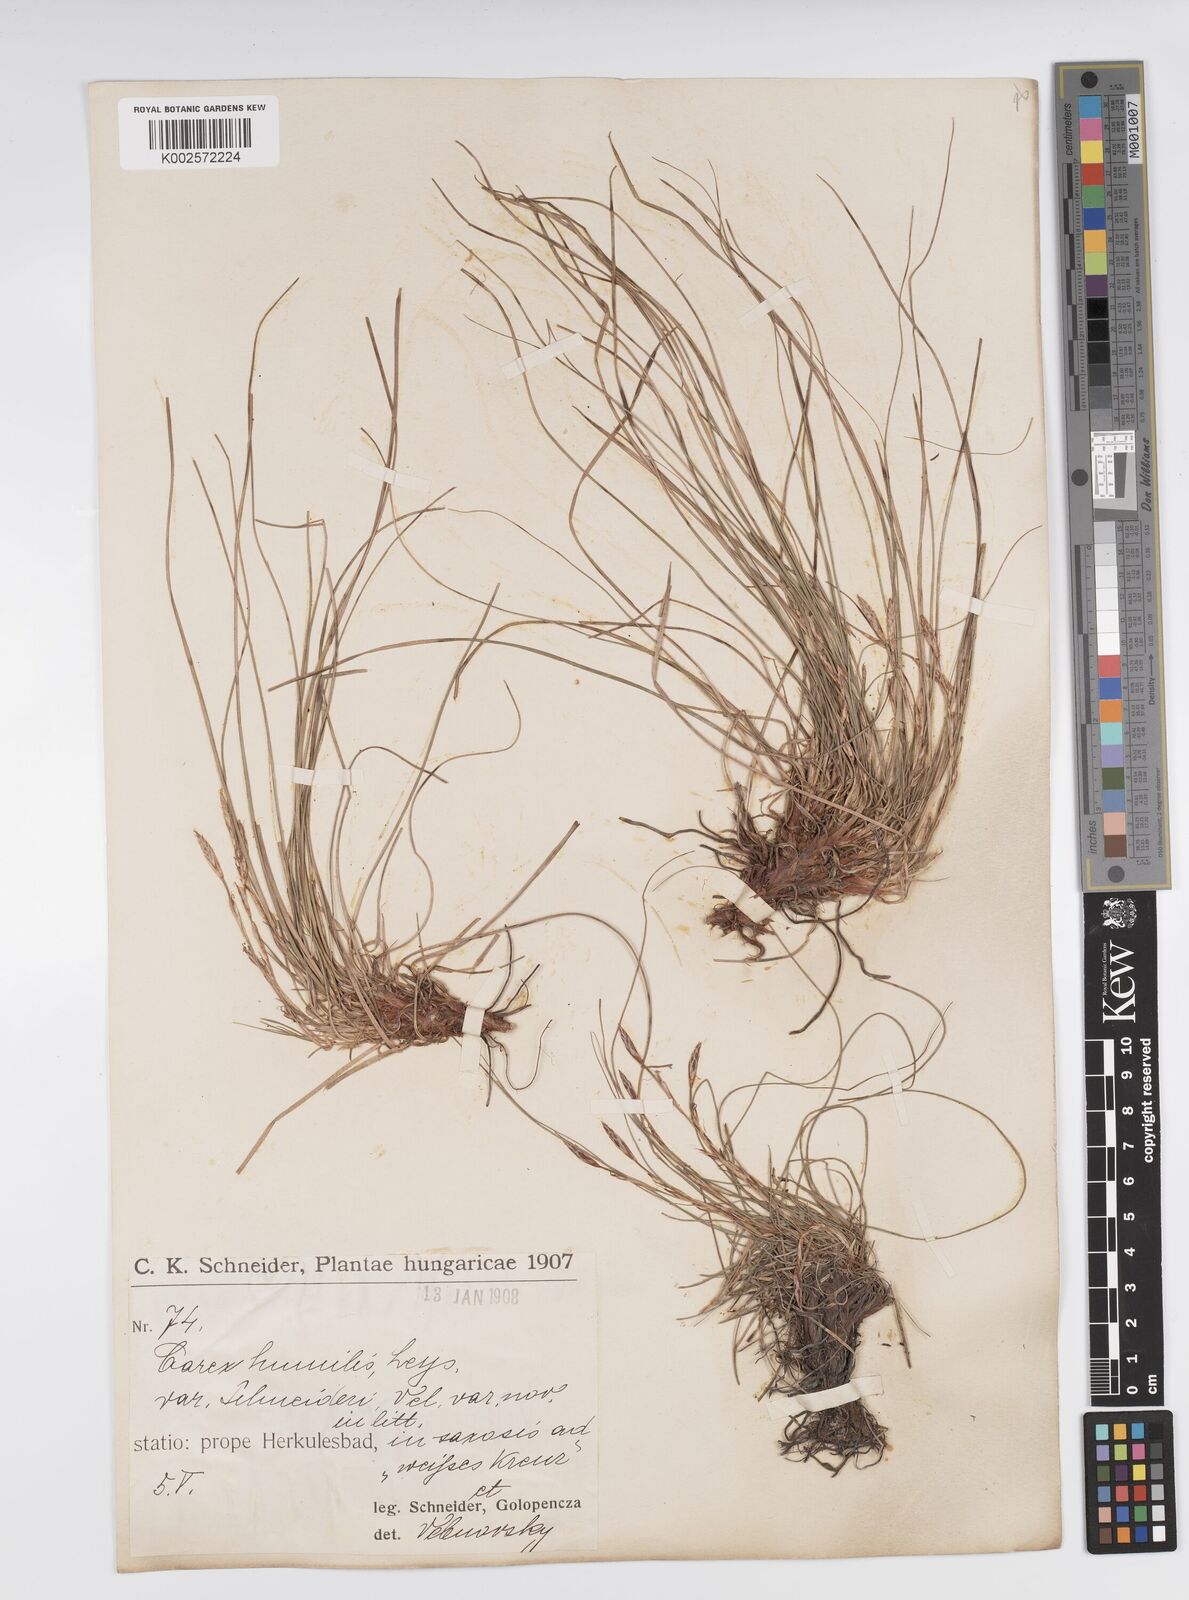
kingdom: Plantae
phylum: Tracheophyta
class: Liliopsida
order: Poales
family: Cyperaceae
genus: Carex
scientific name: Carex humilis
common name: Dwarf sedge
